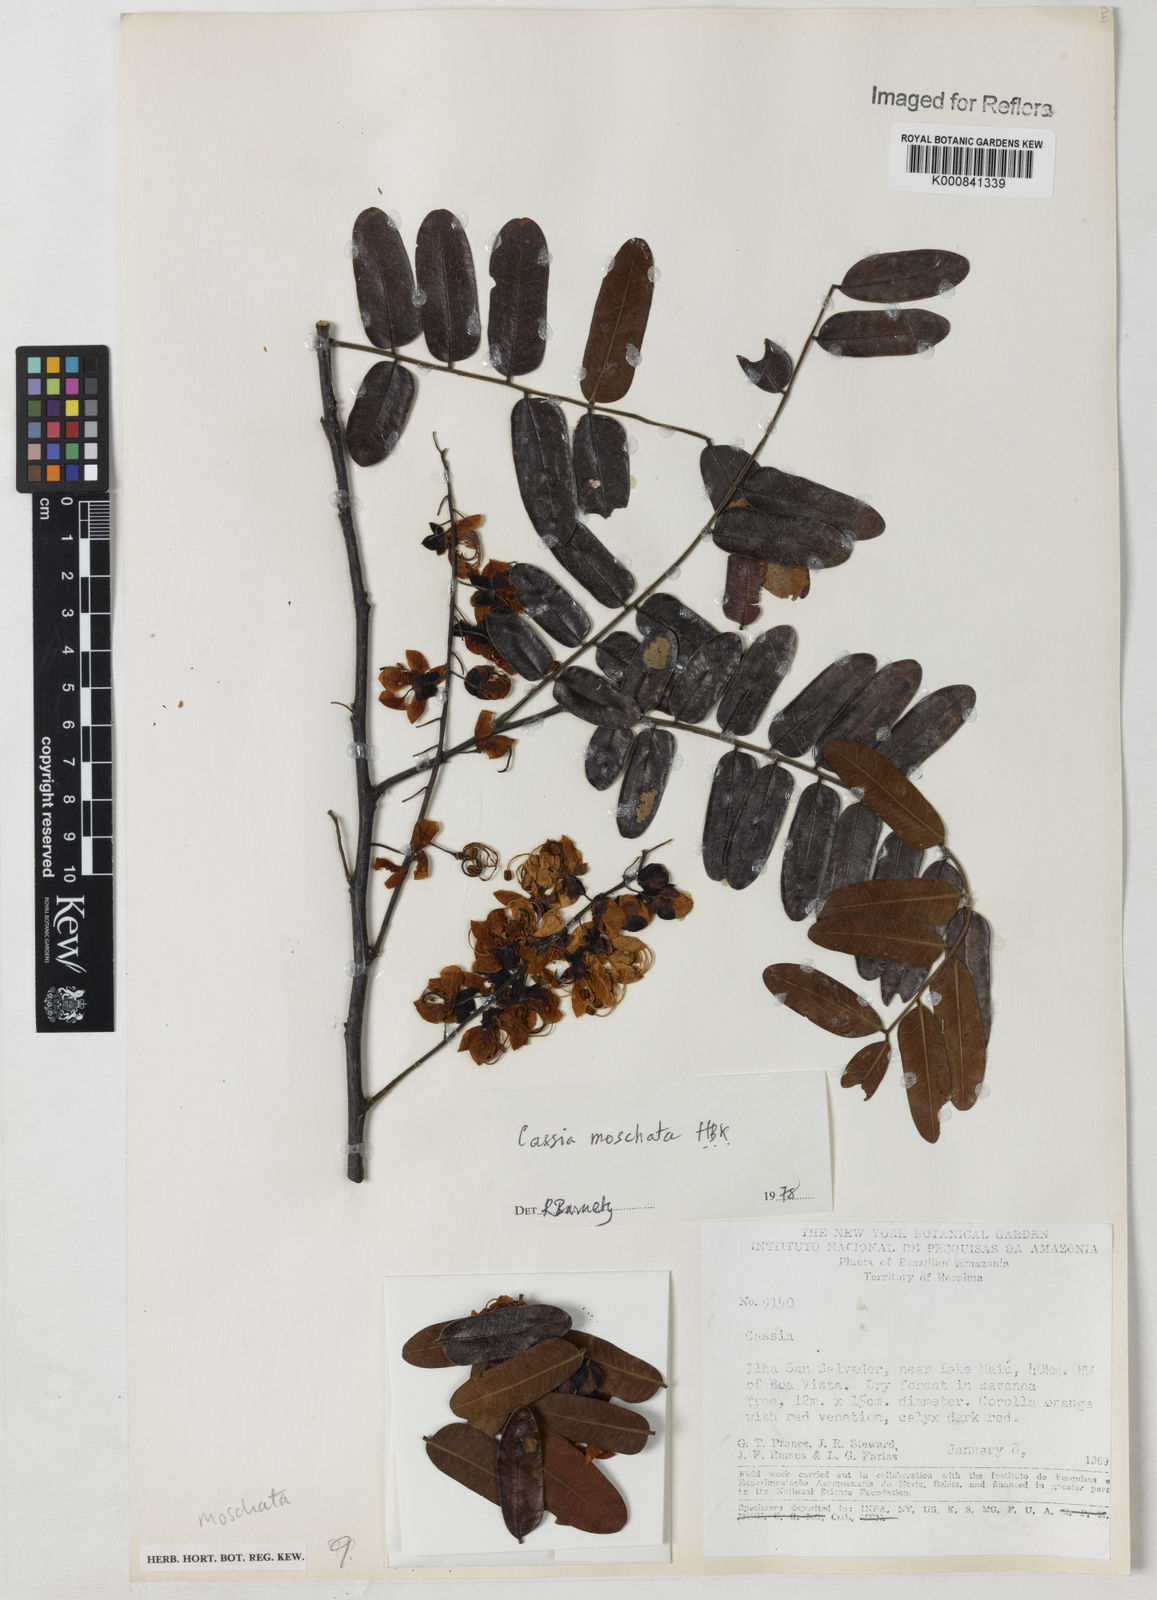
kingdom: Plantae
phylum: Tracheophyta
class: Magnoliopsida
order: Fabales
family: Fabaceae
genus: Cassia
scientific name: Cassia moschata
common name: Bronze shower tree
